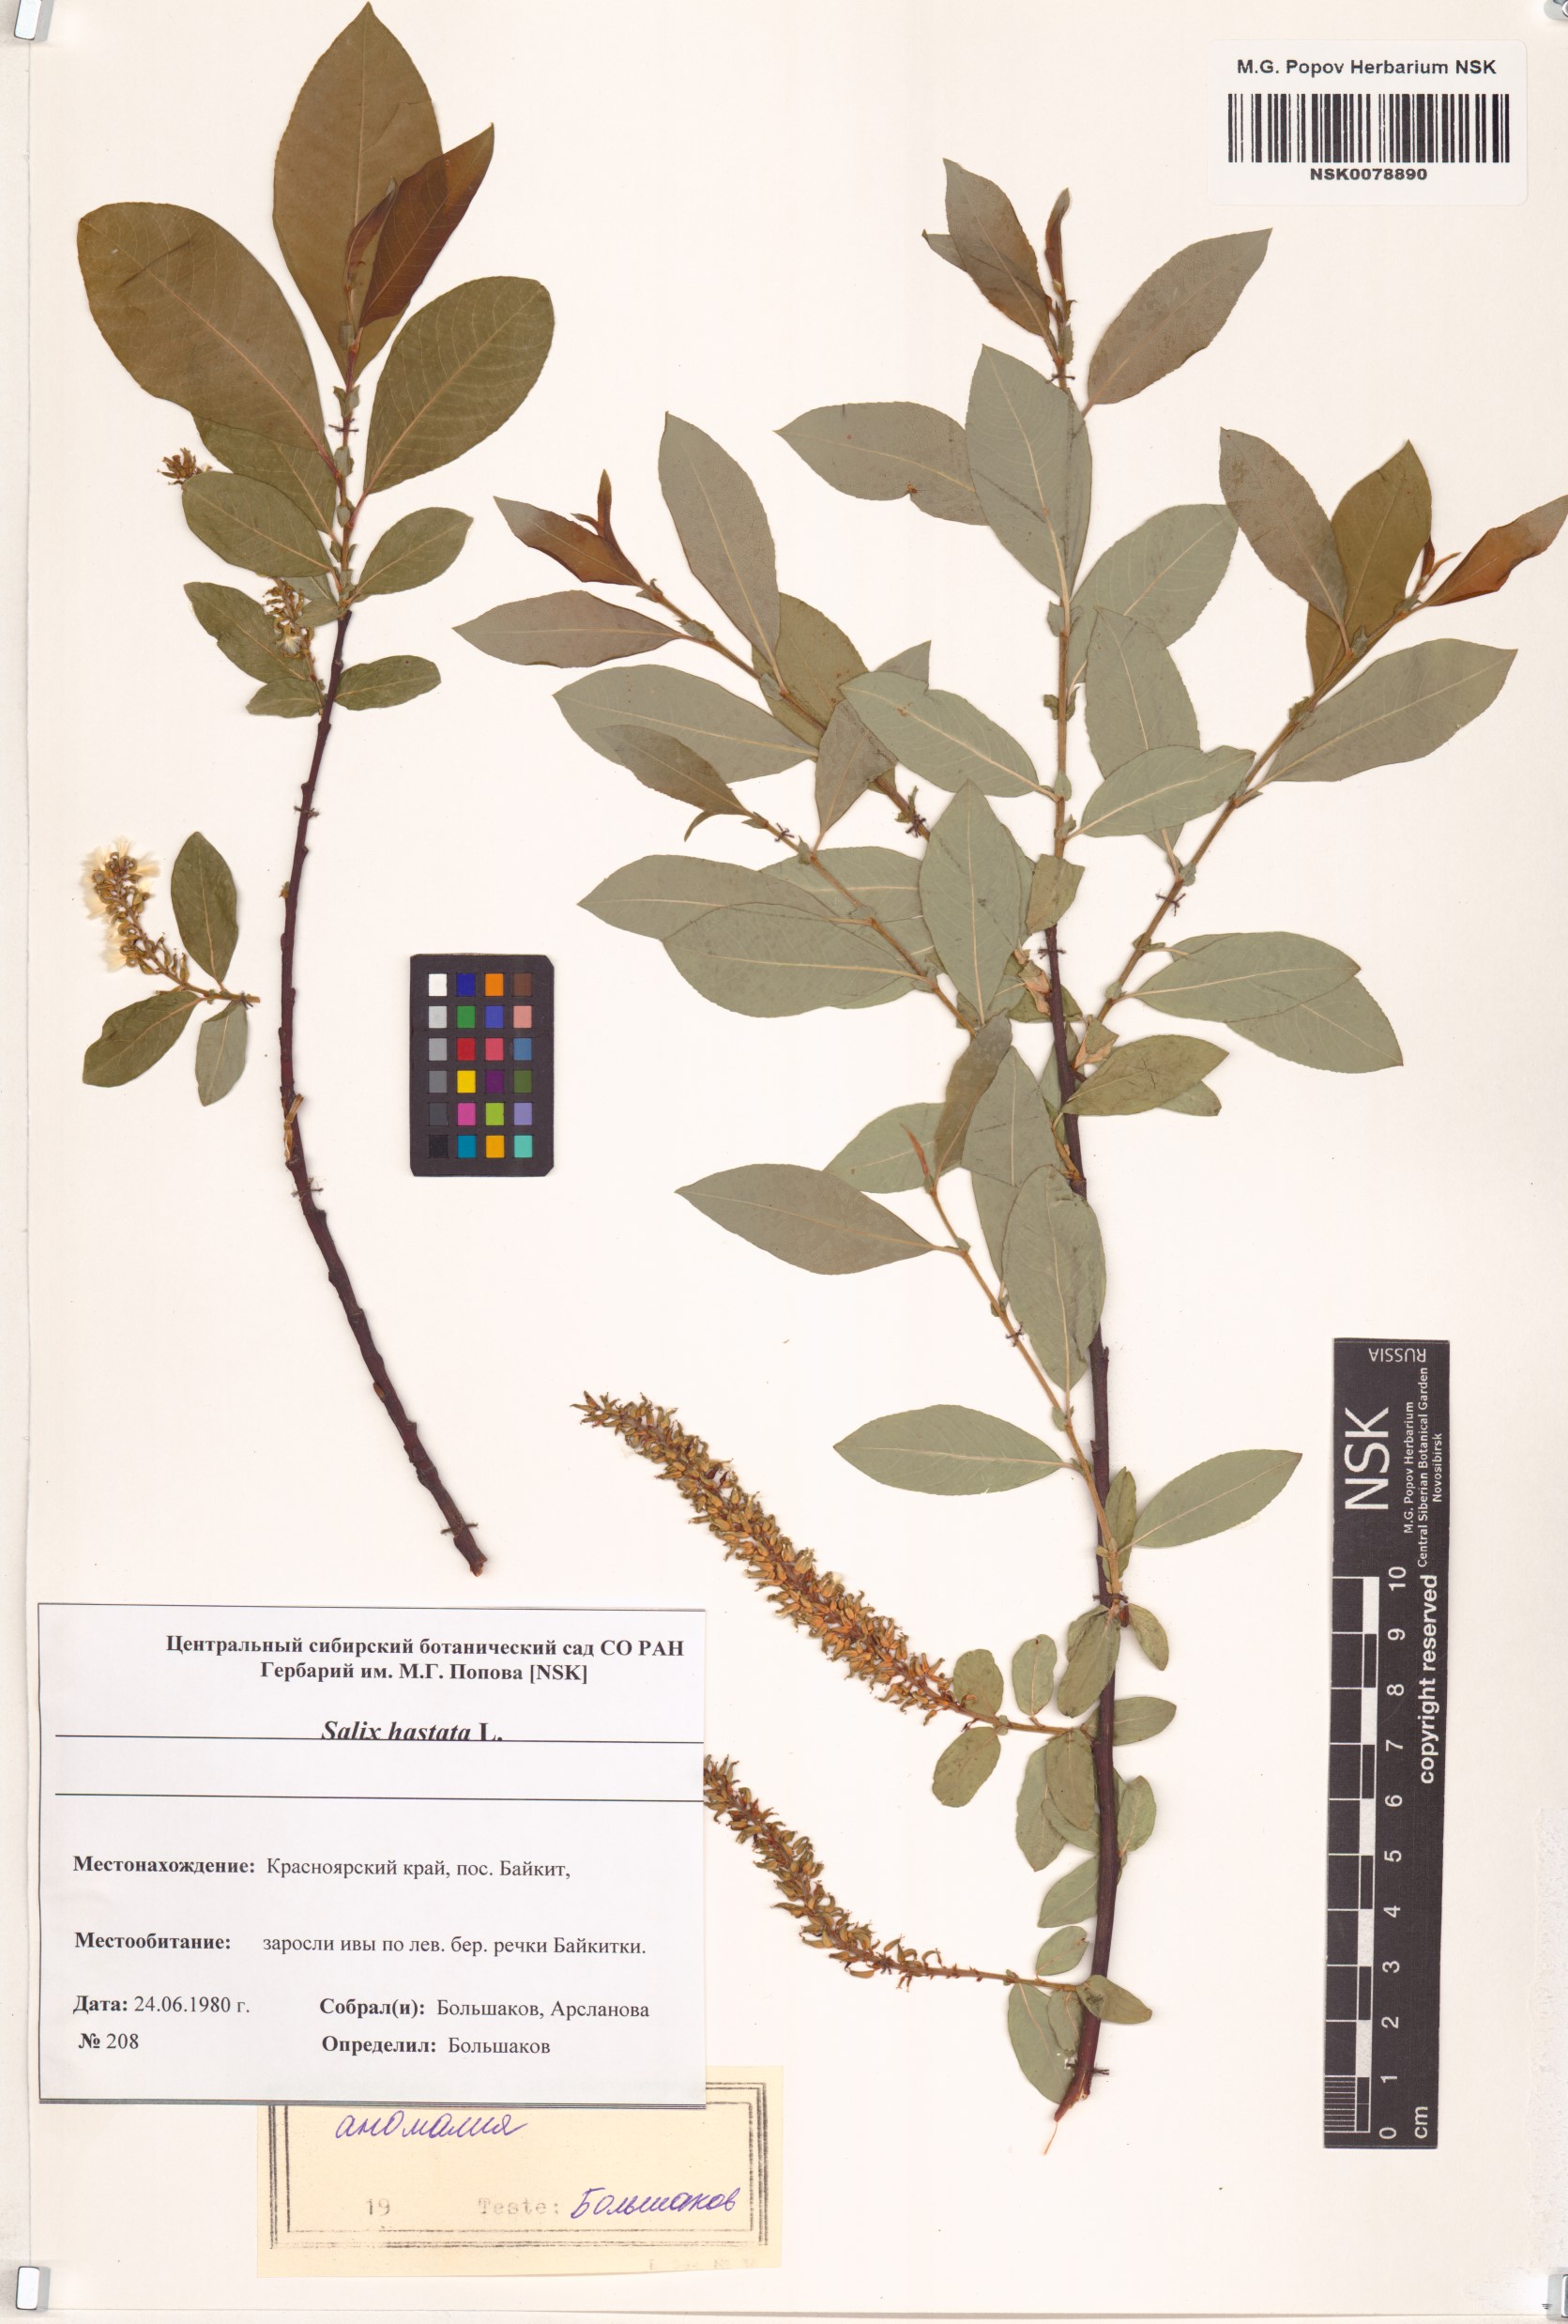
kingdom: Plantae
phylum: Tracheophyta
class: Magnoliopsida
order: Malpighiales
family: Salicaceae
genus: Salix
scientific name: Salix hastata
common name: Halberd willow
